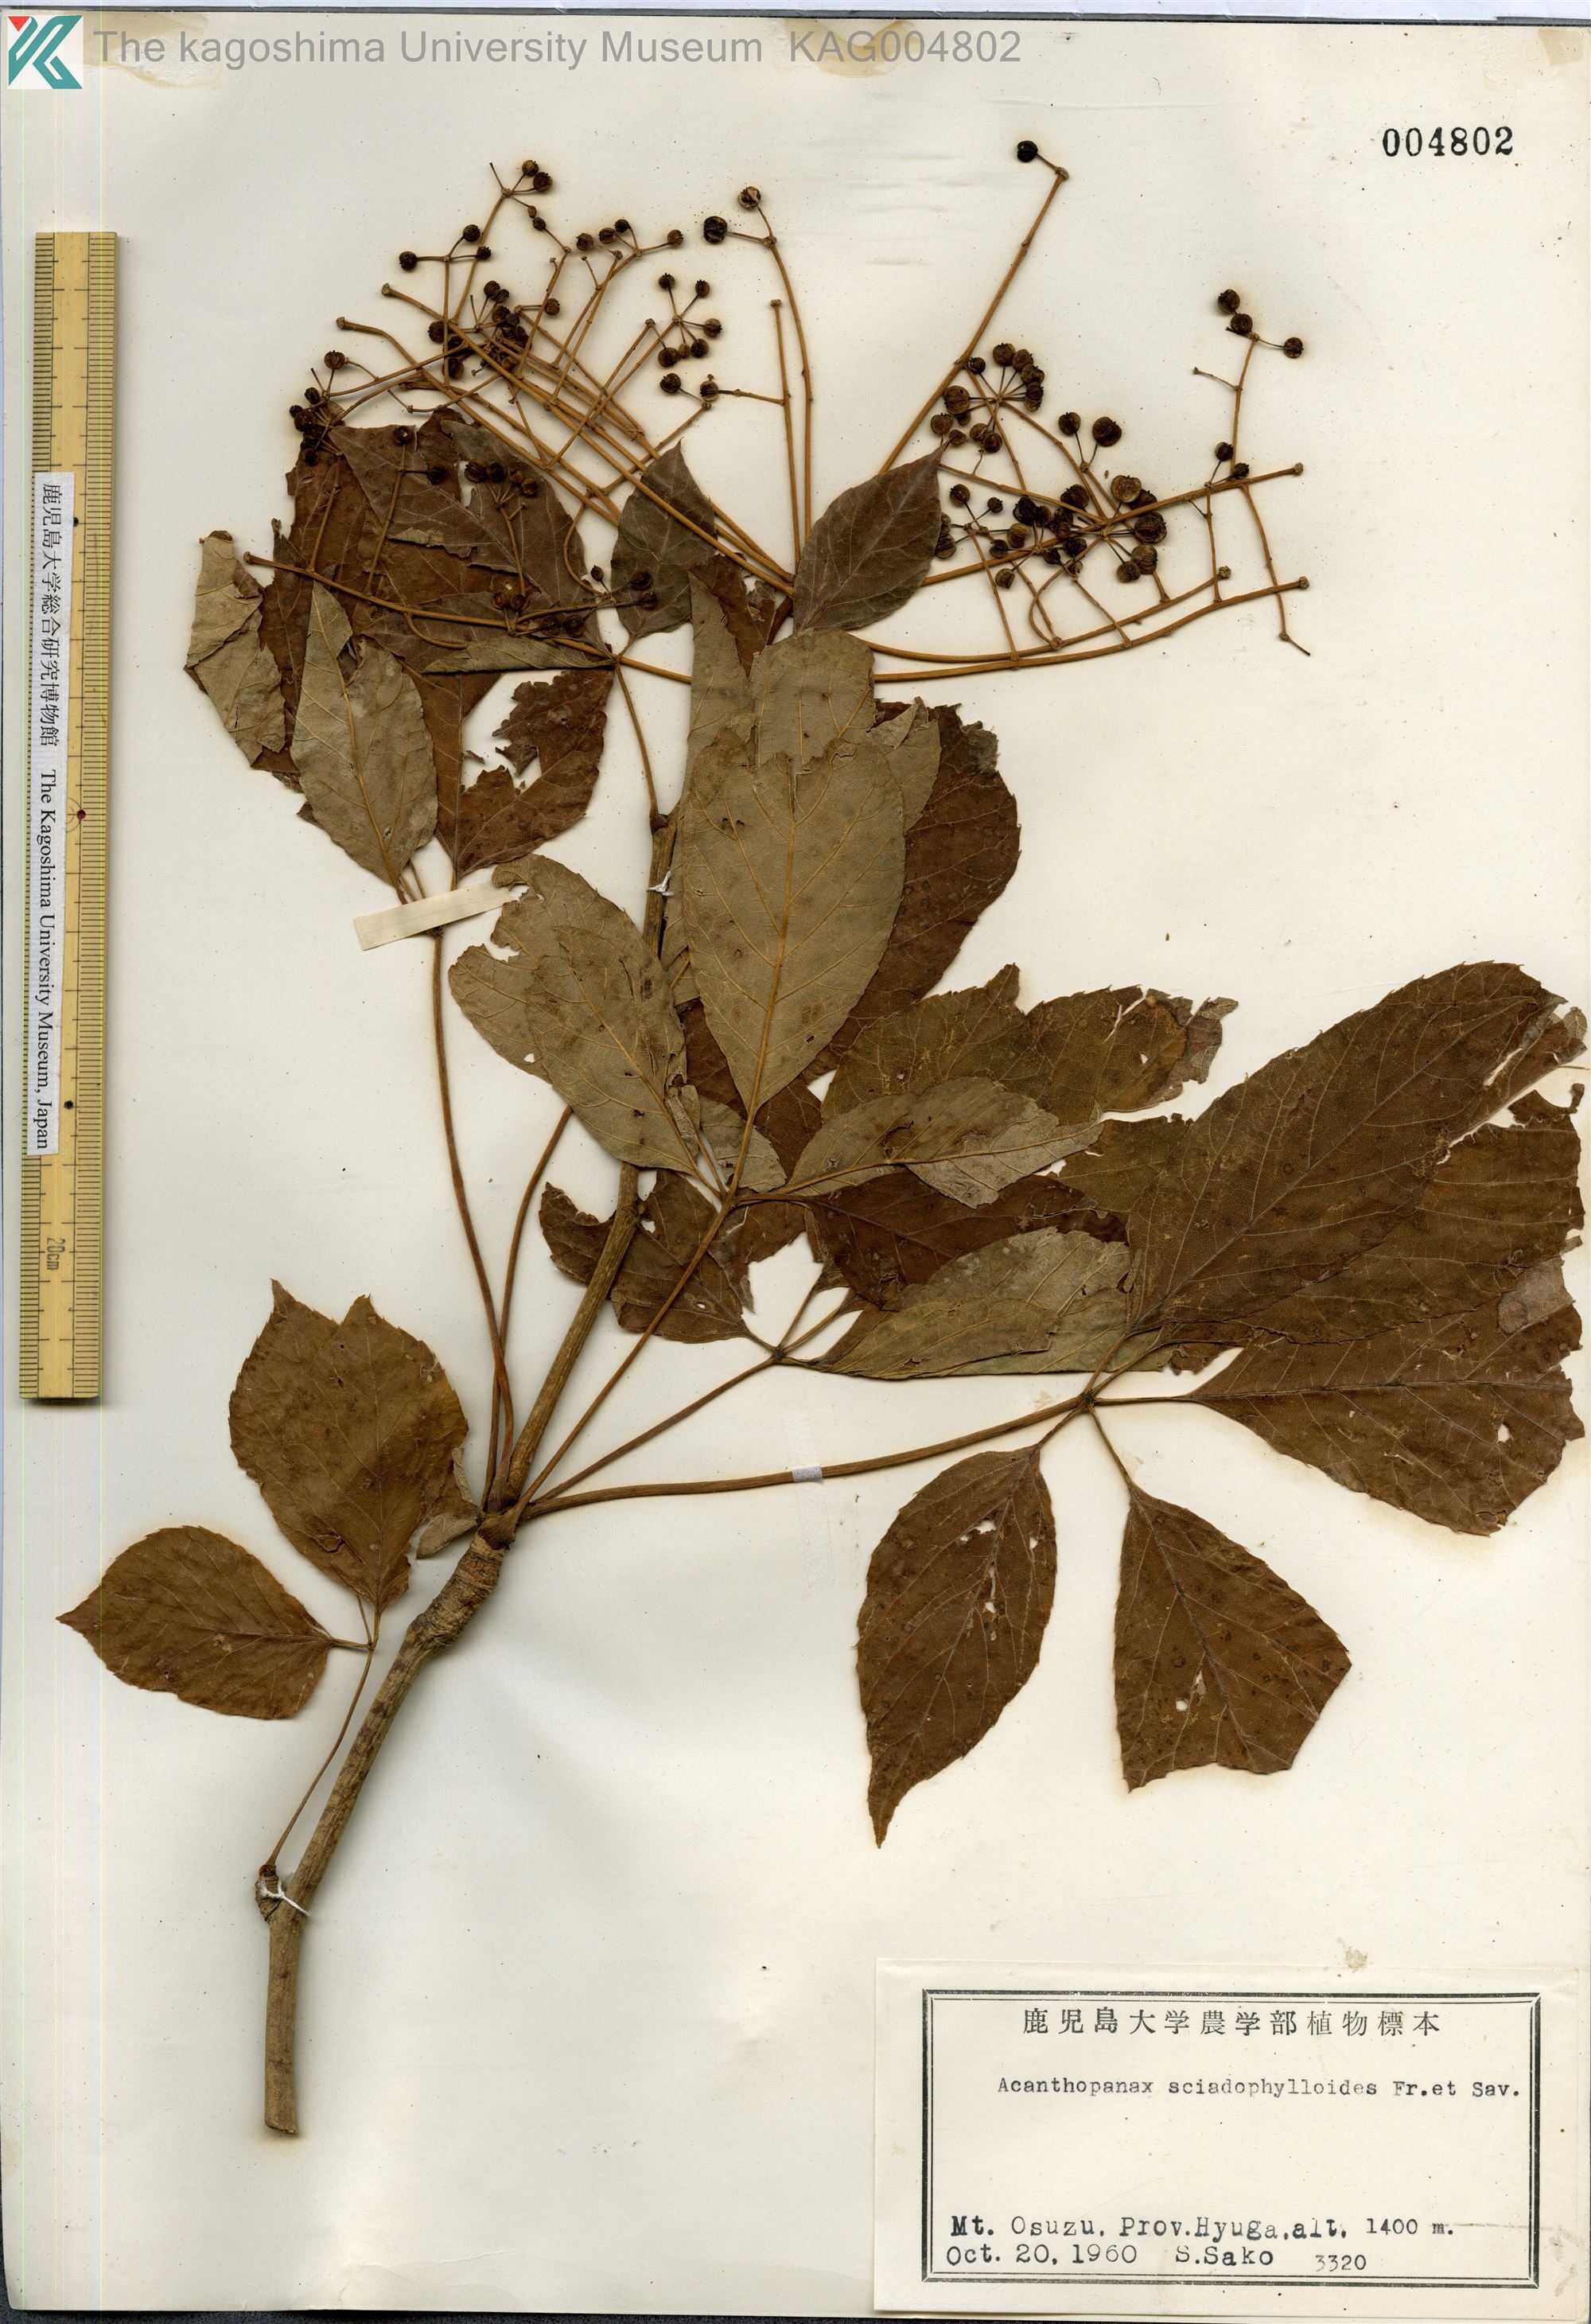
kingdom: Plantae
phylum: Tracheophyta
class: Magnoliopsida
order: Apiales
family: Araliaceae
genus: Chengiopanax
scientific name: Chengiopanax sciadophylloides
